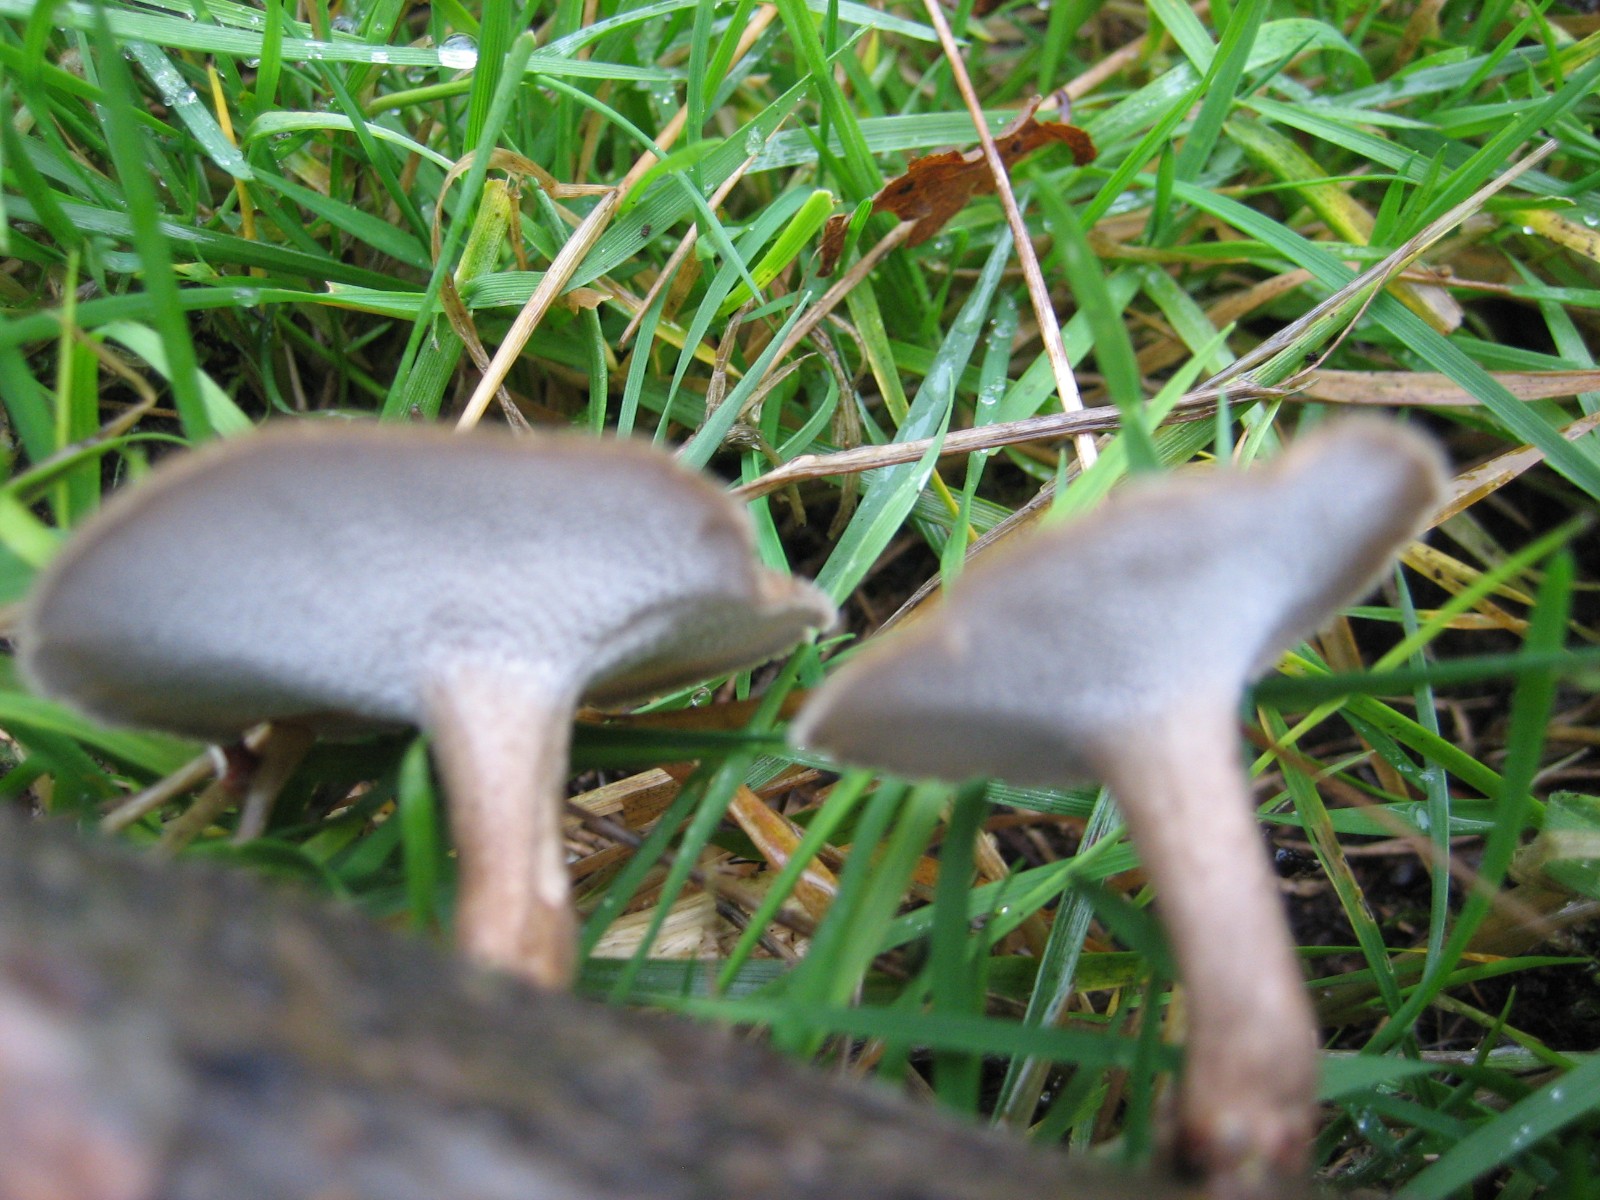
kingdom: Fungi
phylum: Basidiomycota
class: Agaricomycetes
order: Polyporales
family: Polyporaceae
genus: Lentinus
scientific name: Lentinus brumalis
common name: vinter-stilkporesvamp
